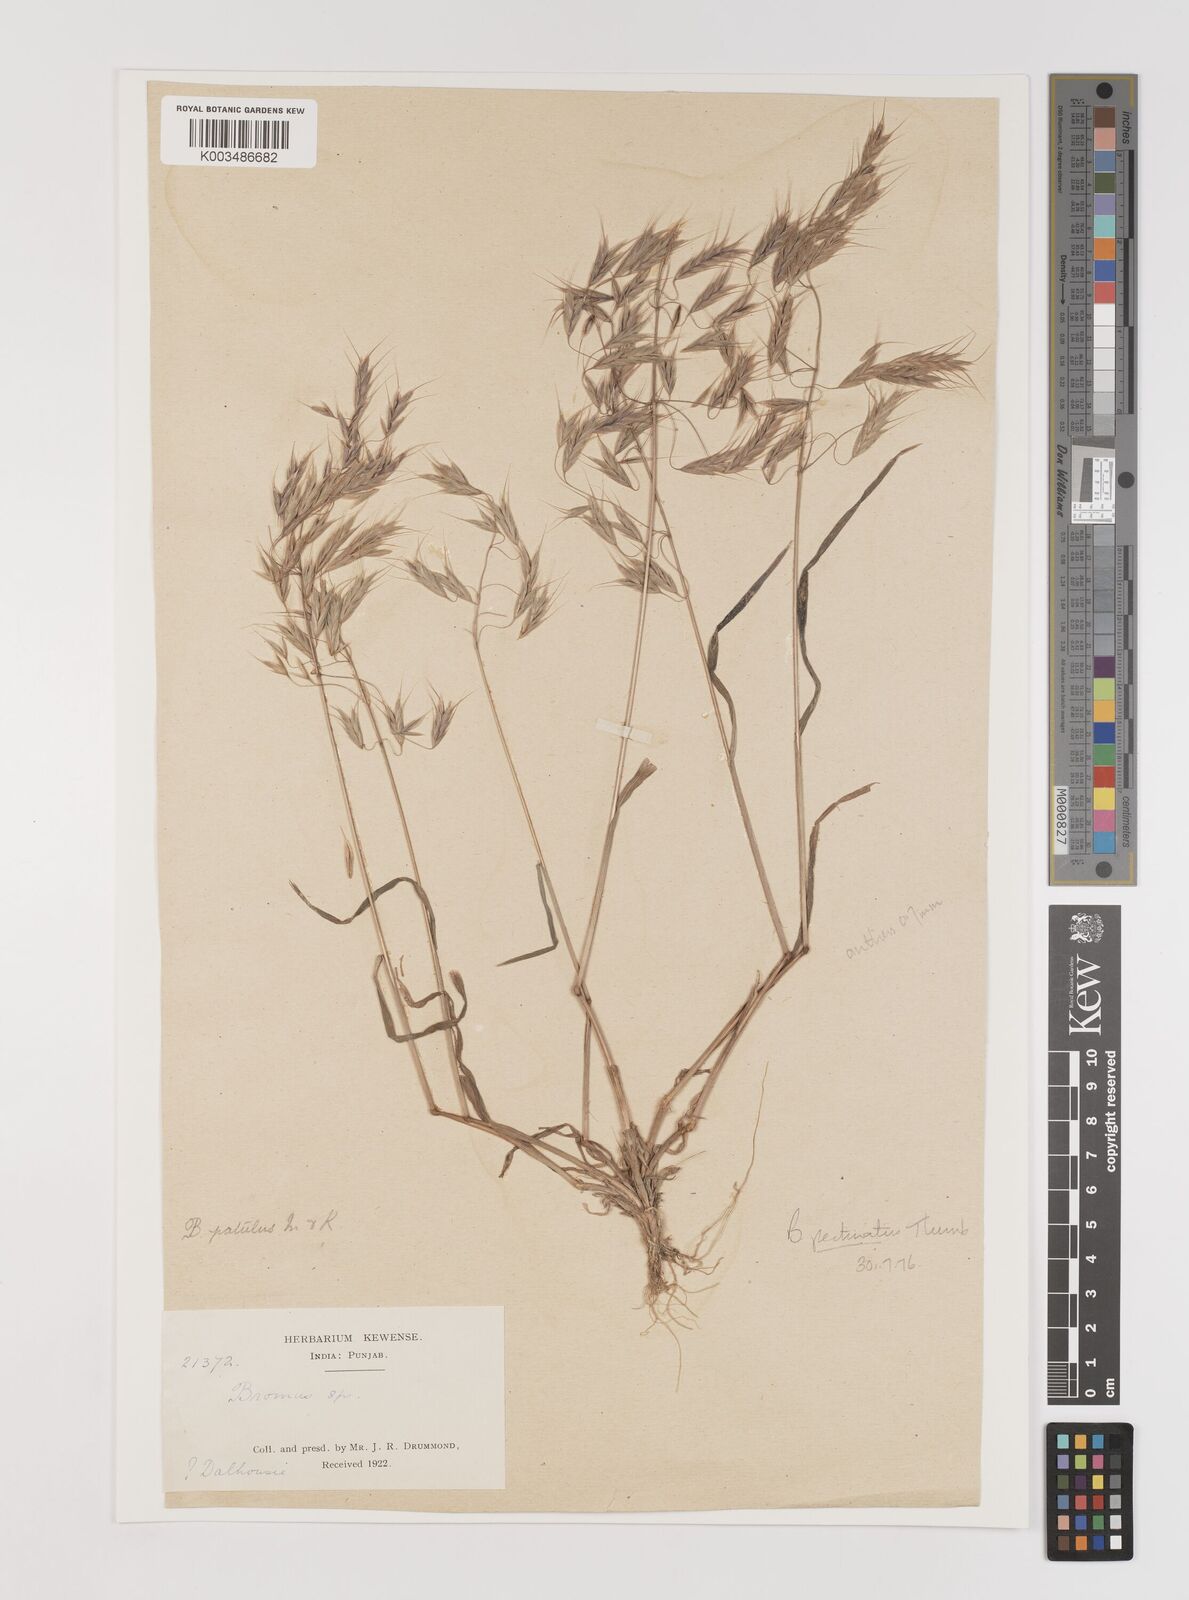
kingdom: Plantae
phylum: Tracheophyta
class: Liliopsida
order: Poales
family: Poaceae
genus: Bromus
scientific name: Bromus pectinatus
